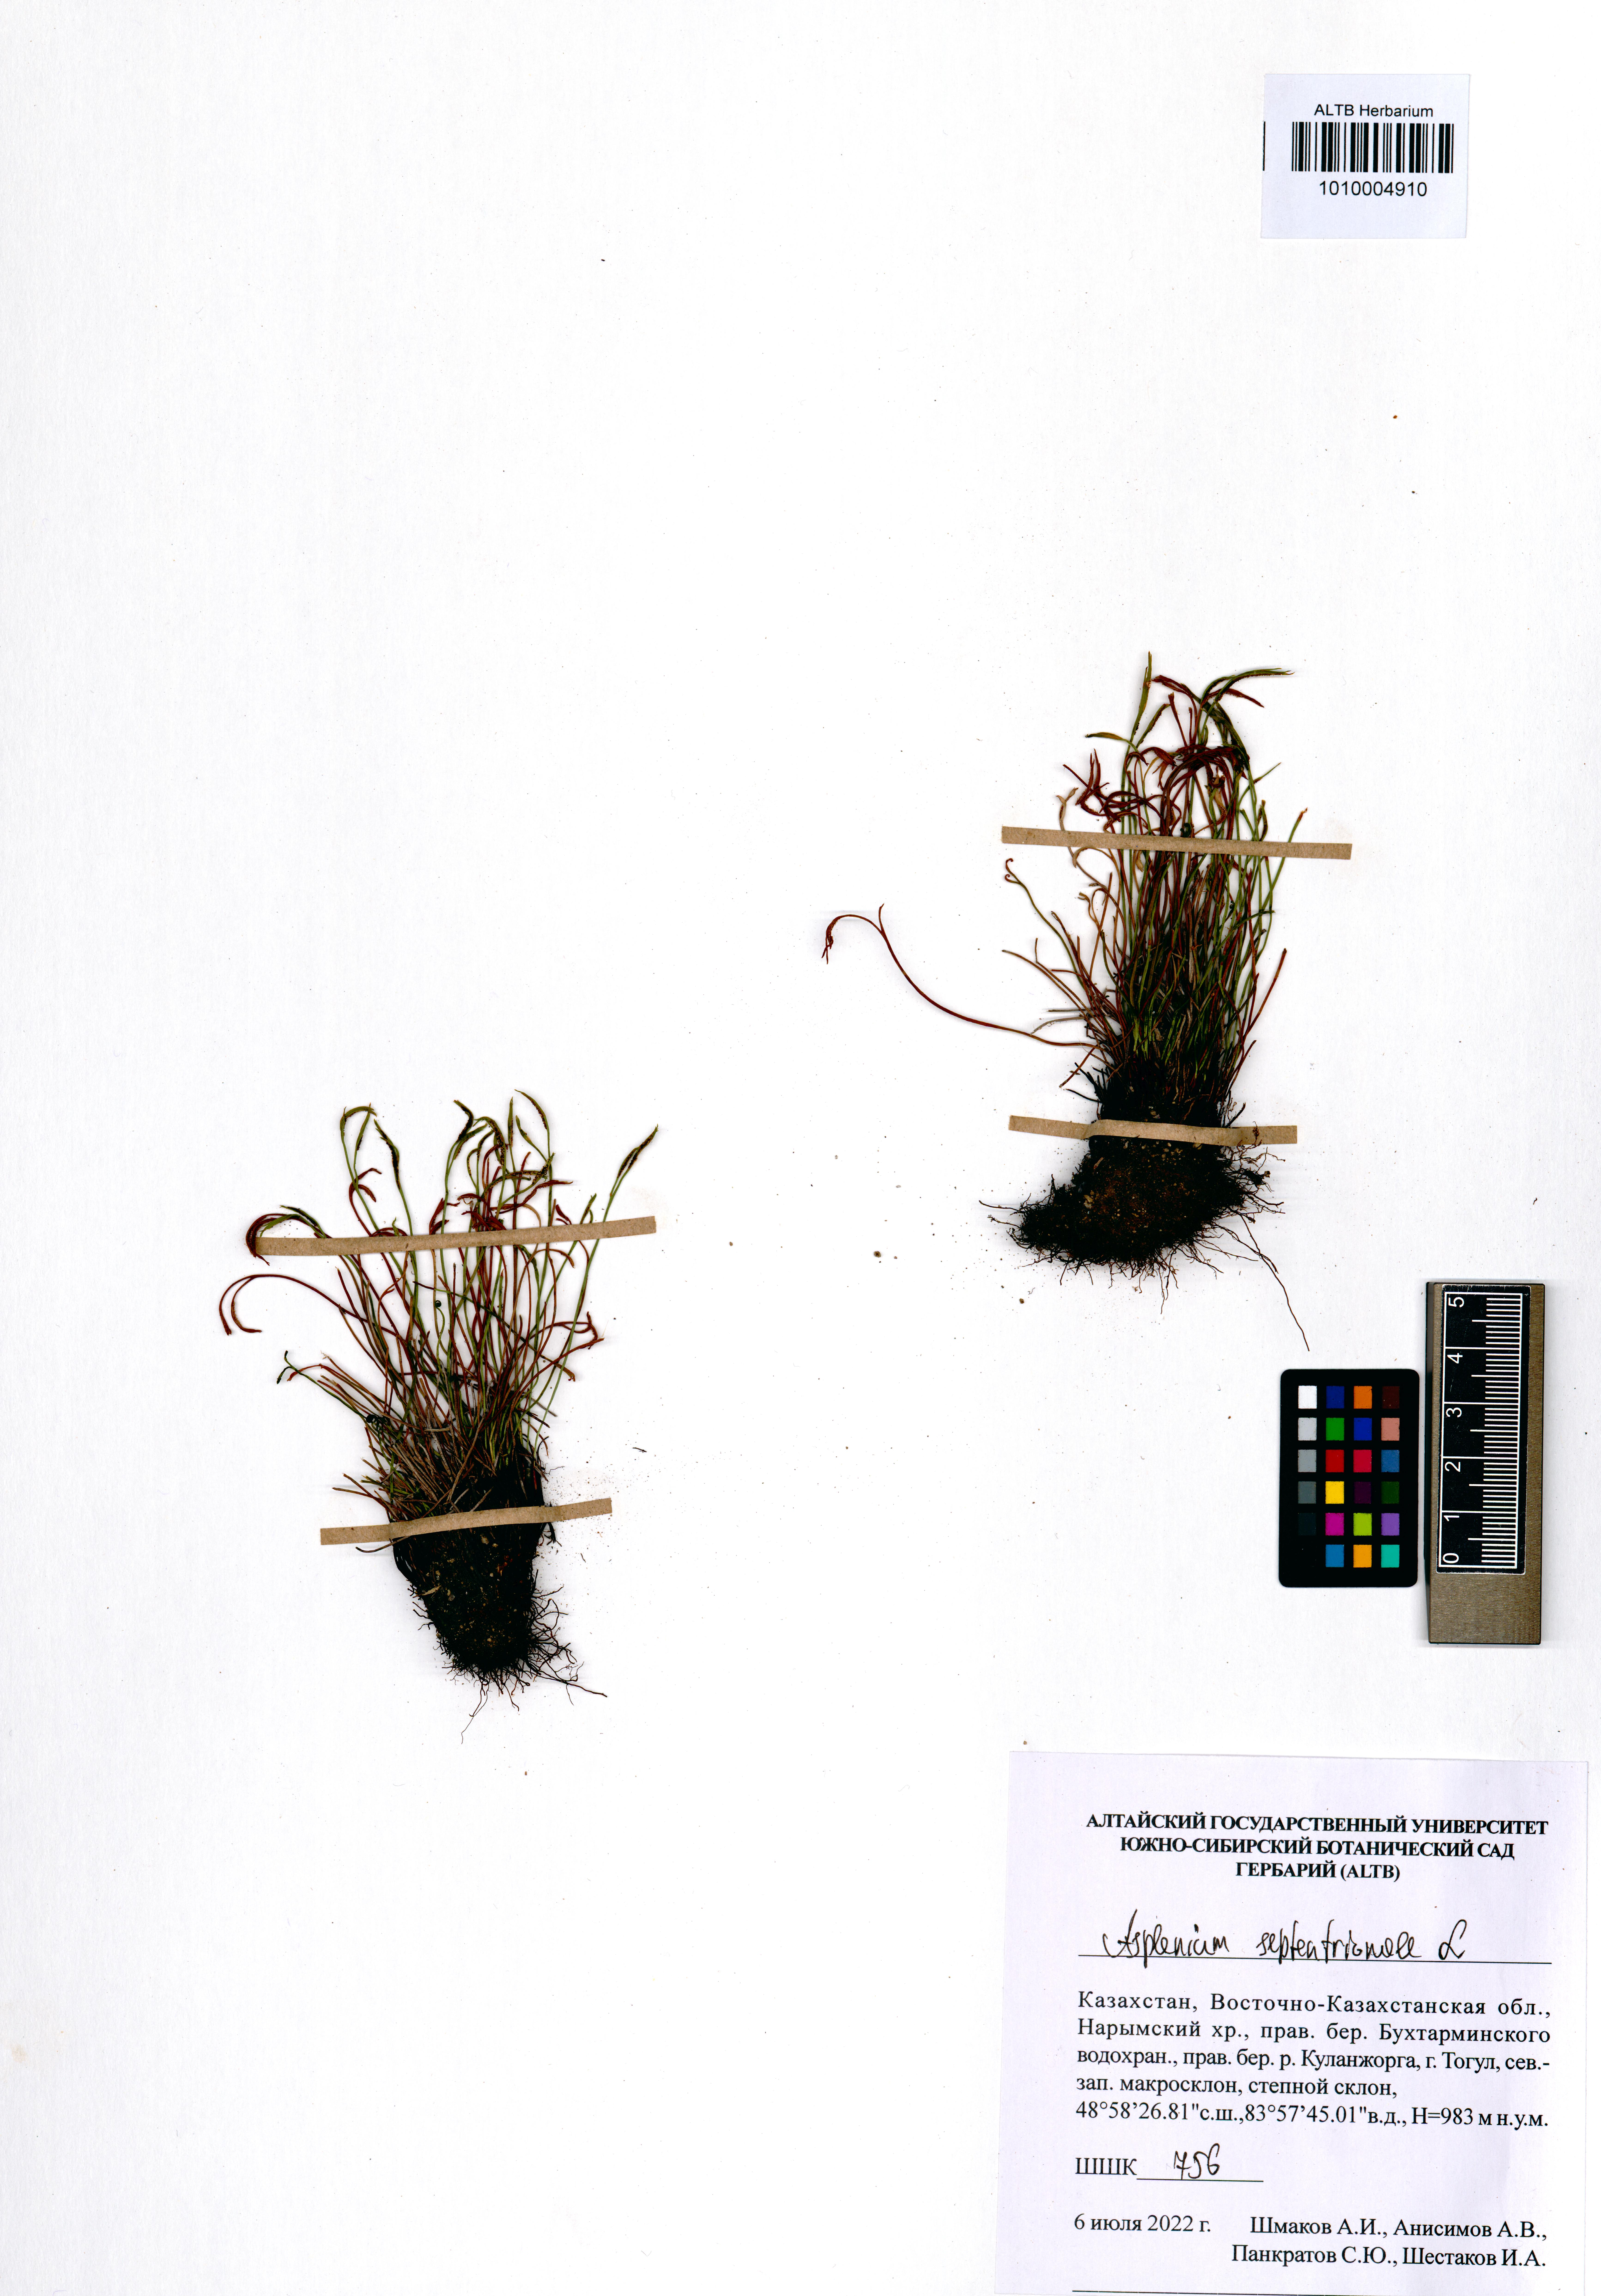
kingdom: Plantae
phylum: Tracheophyta
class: Polypodiopsida
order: Polypodiales
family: Aspleniaceae
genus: Asplenium
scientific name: Asplenium septentrionale
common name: Forked spleenwort
